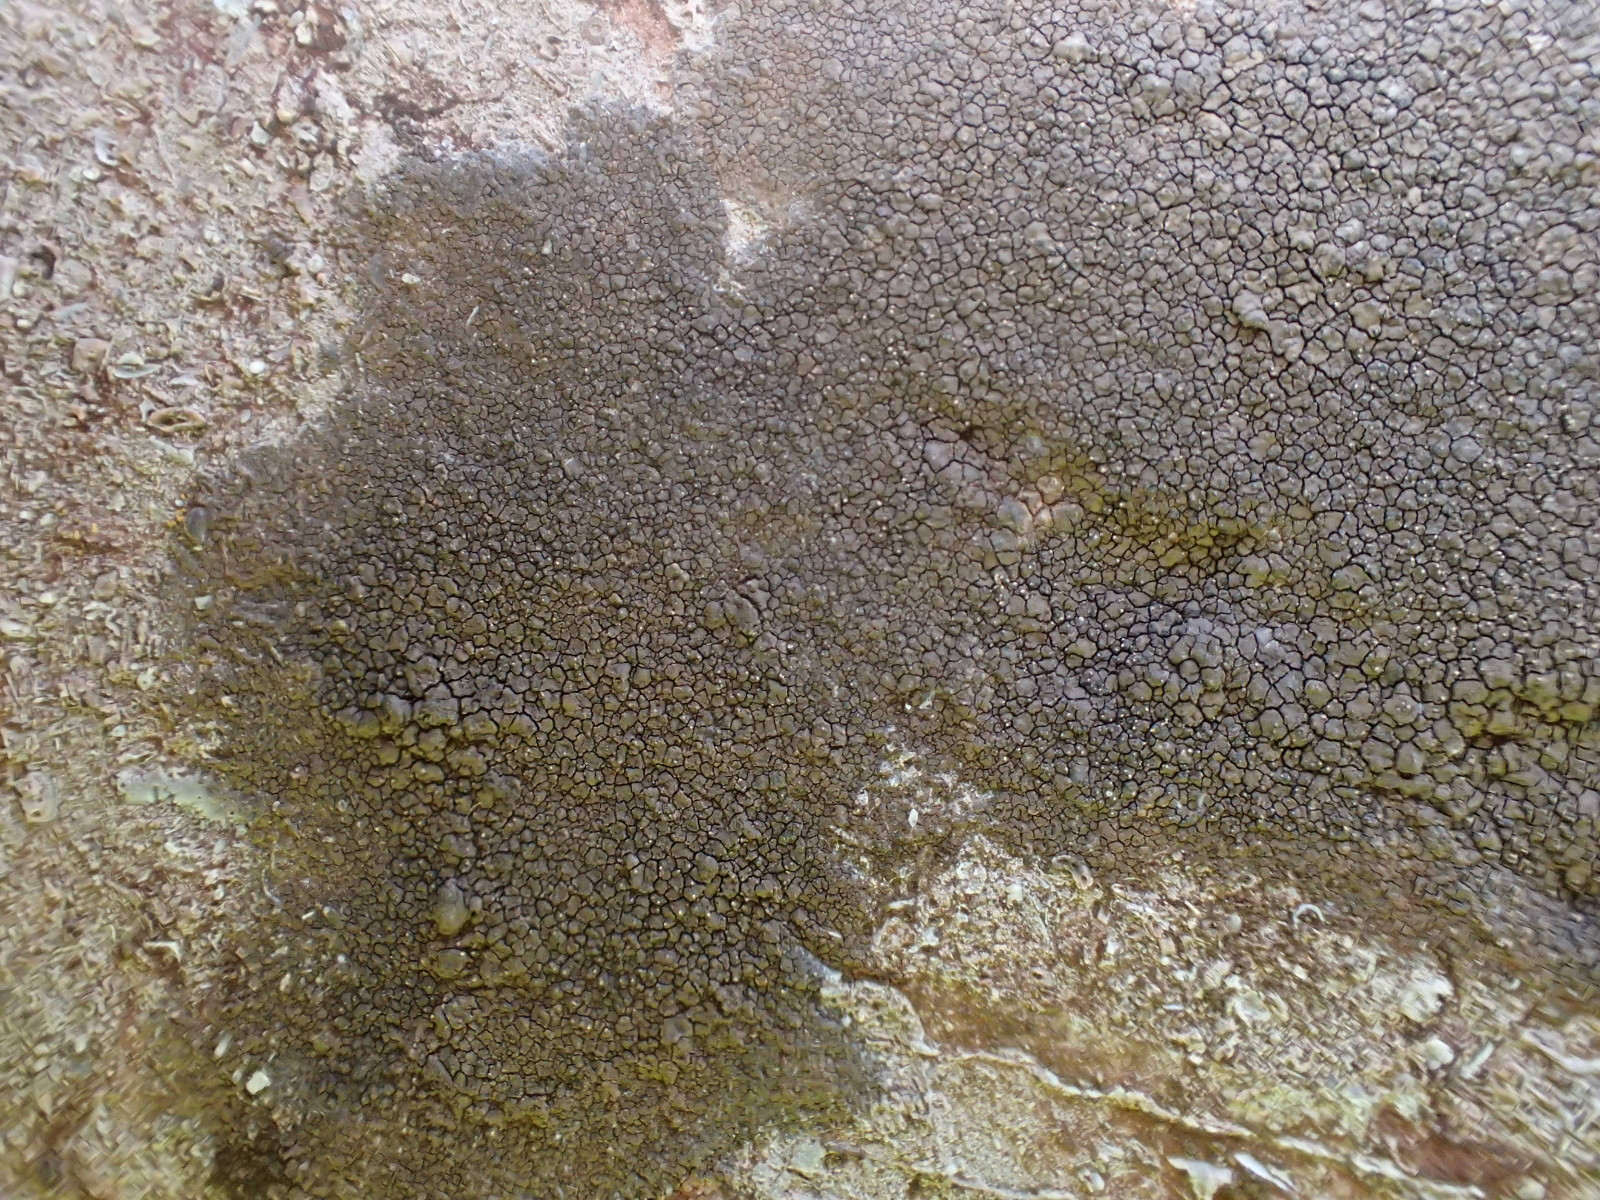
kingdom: Fungi
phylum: Ascomycota
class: Eurotiomycetes
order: Verrucariales
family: Verrucariaceae
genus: Verrucaria
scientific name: Verrucaria nigrescens
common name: sortbrun vortelav
